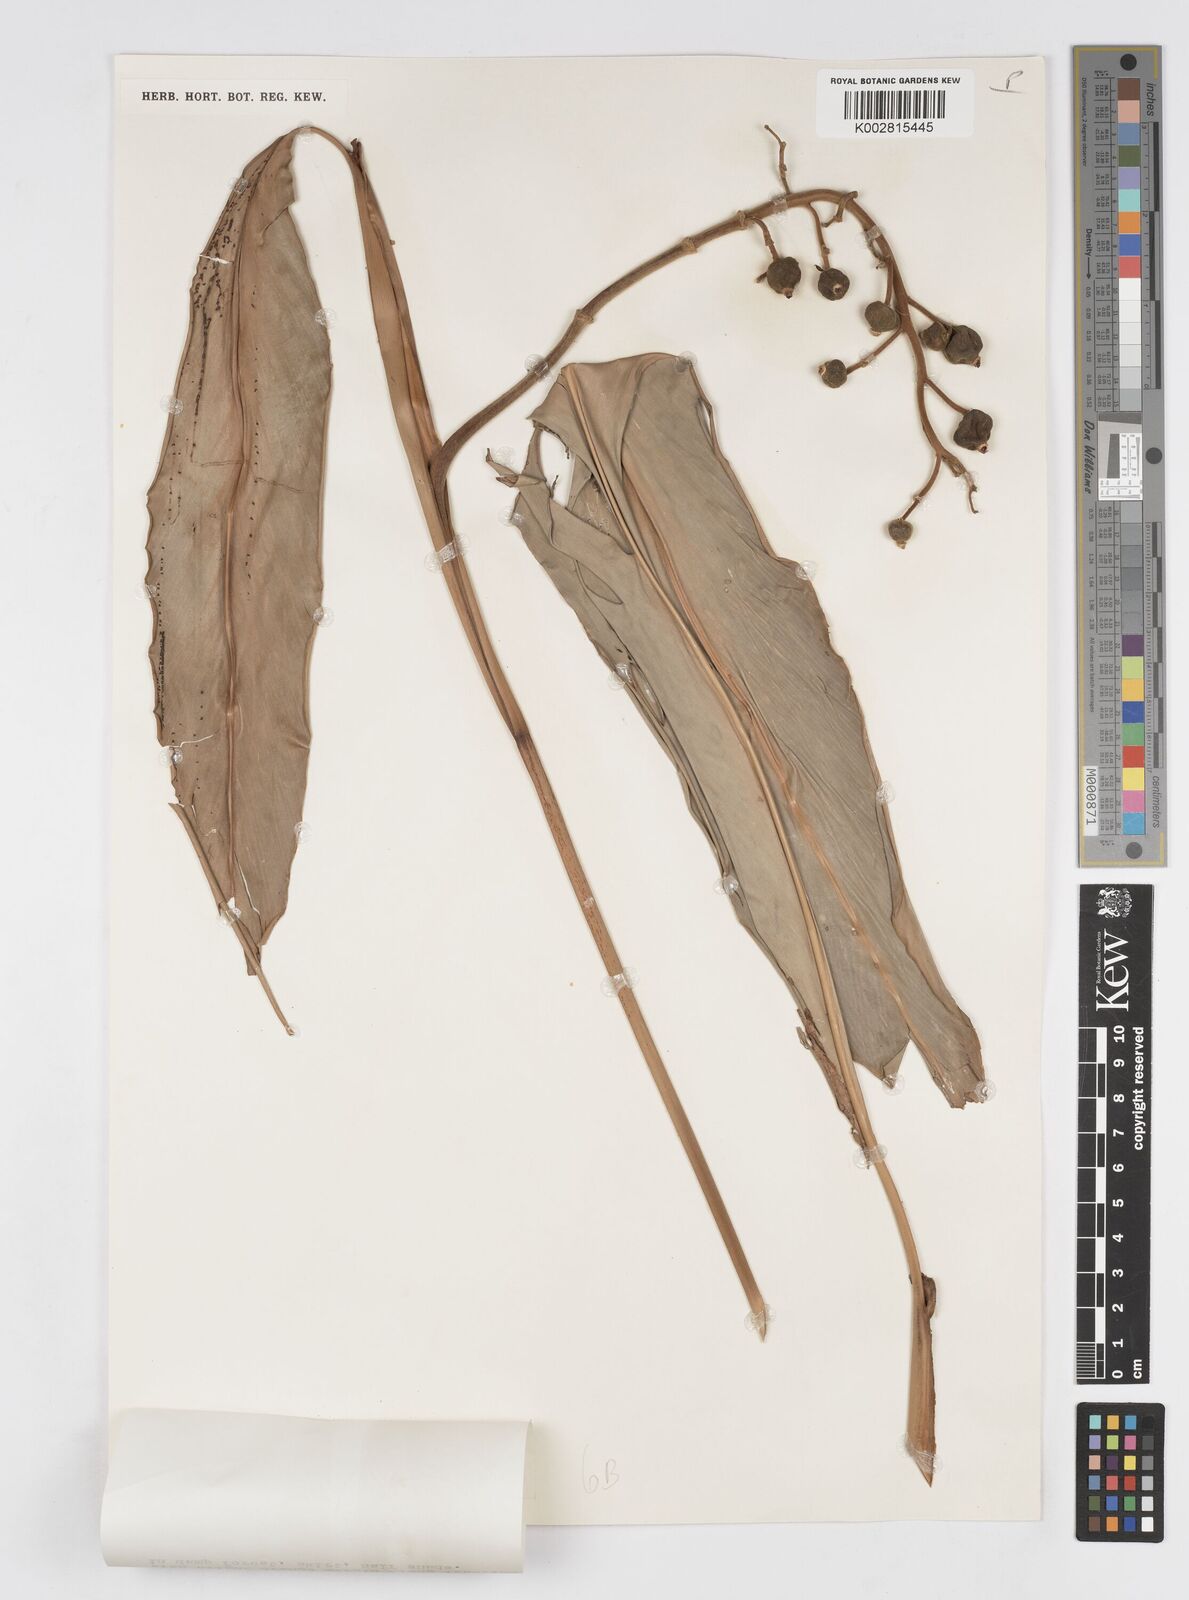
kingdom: Plantae
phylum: Tracheophyta
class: Liliopsida
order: Zingiberales
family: Zingiberaceae
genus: Alpinia
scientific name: Alpinia mutica
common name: Small shell ginger
